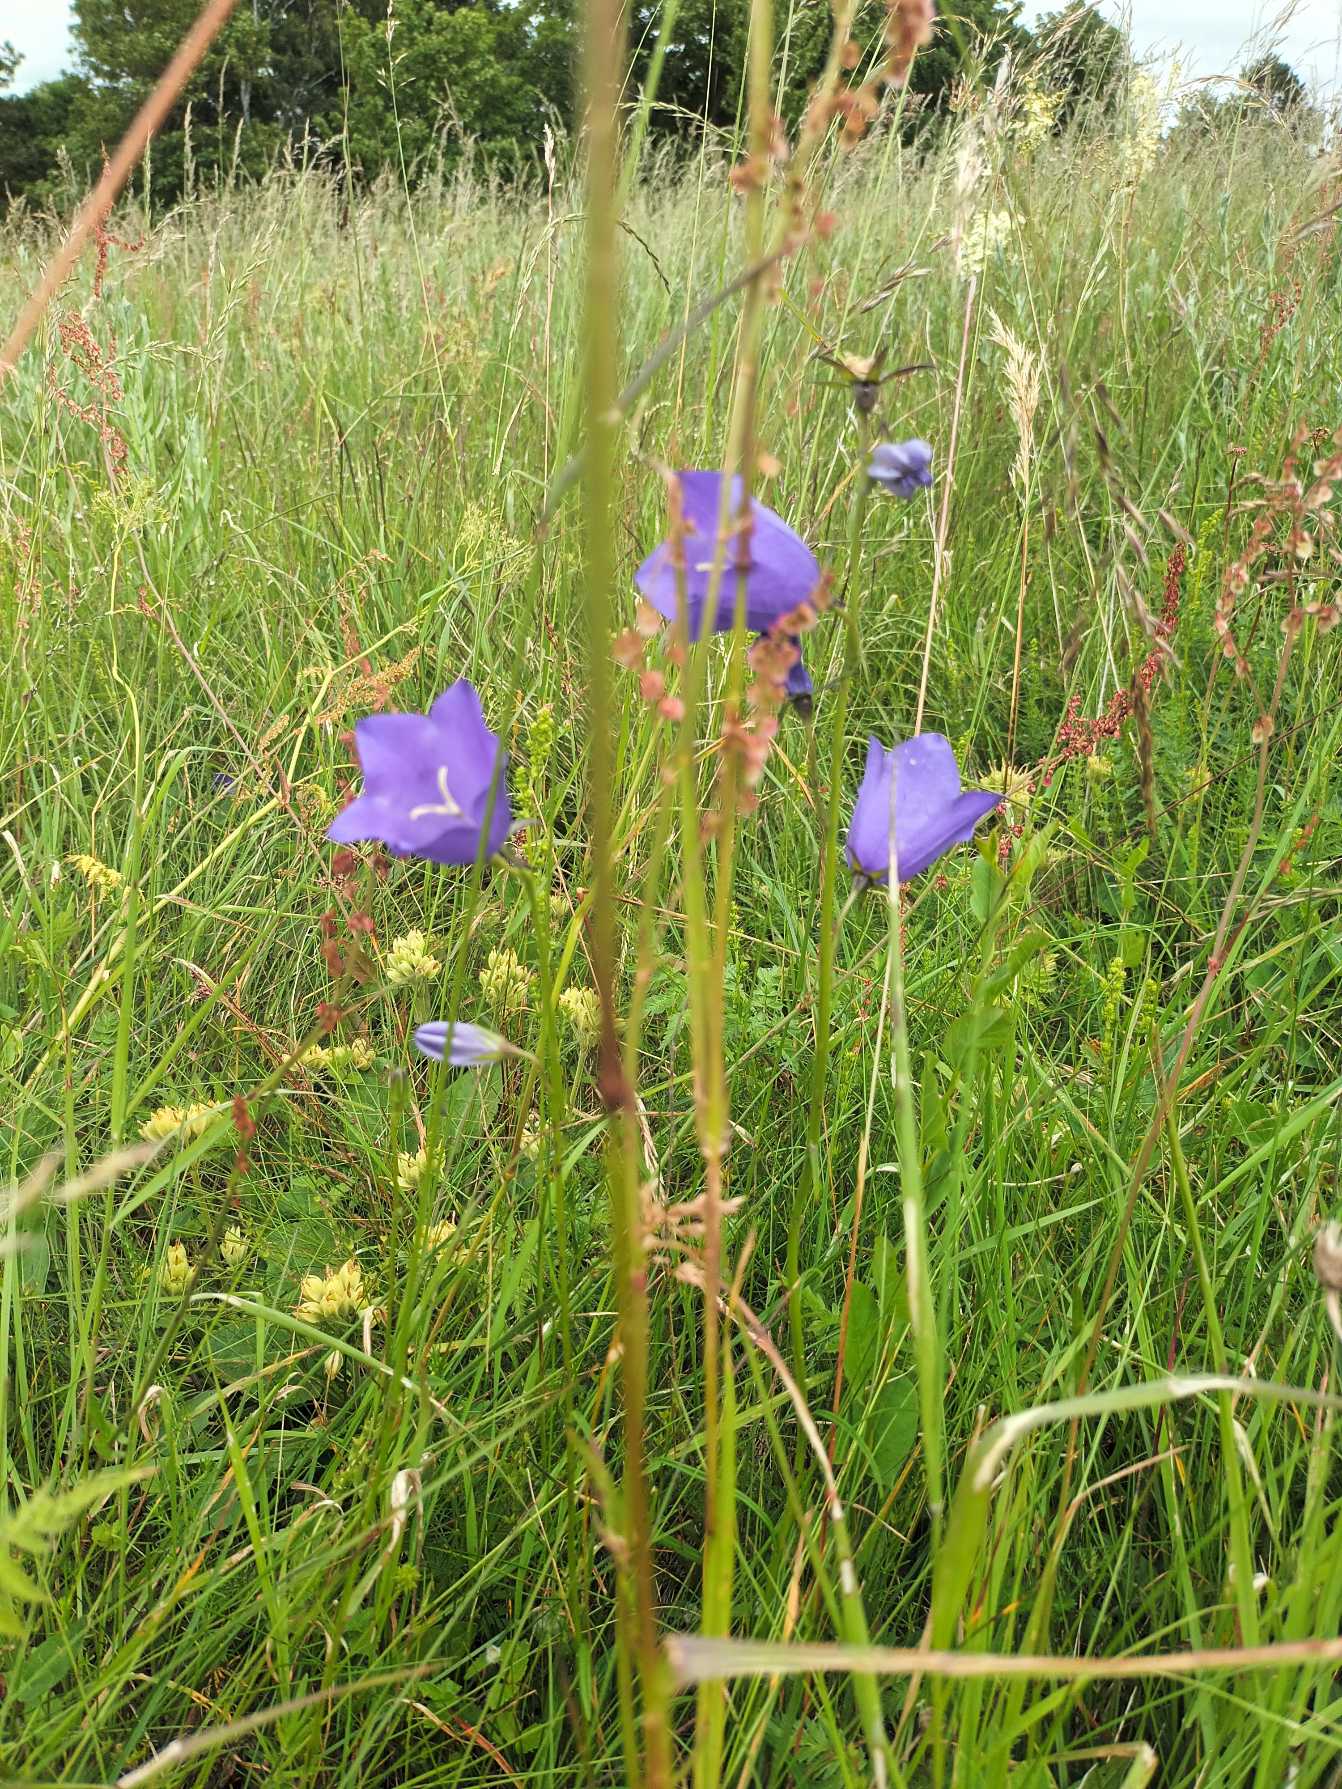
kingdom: Plantae
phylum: Tracheophyta
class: Magnoliopsida
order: Asterales
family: Campanulaceae
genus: Campanula
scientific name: Campanula persicifolia
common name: Smalbladet klokke
